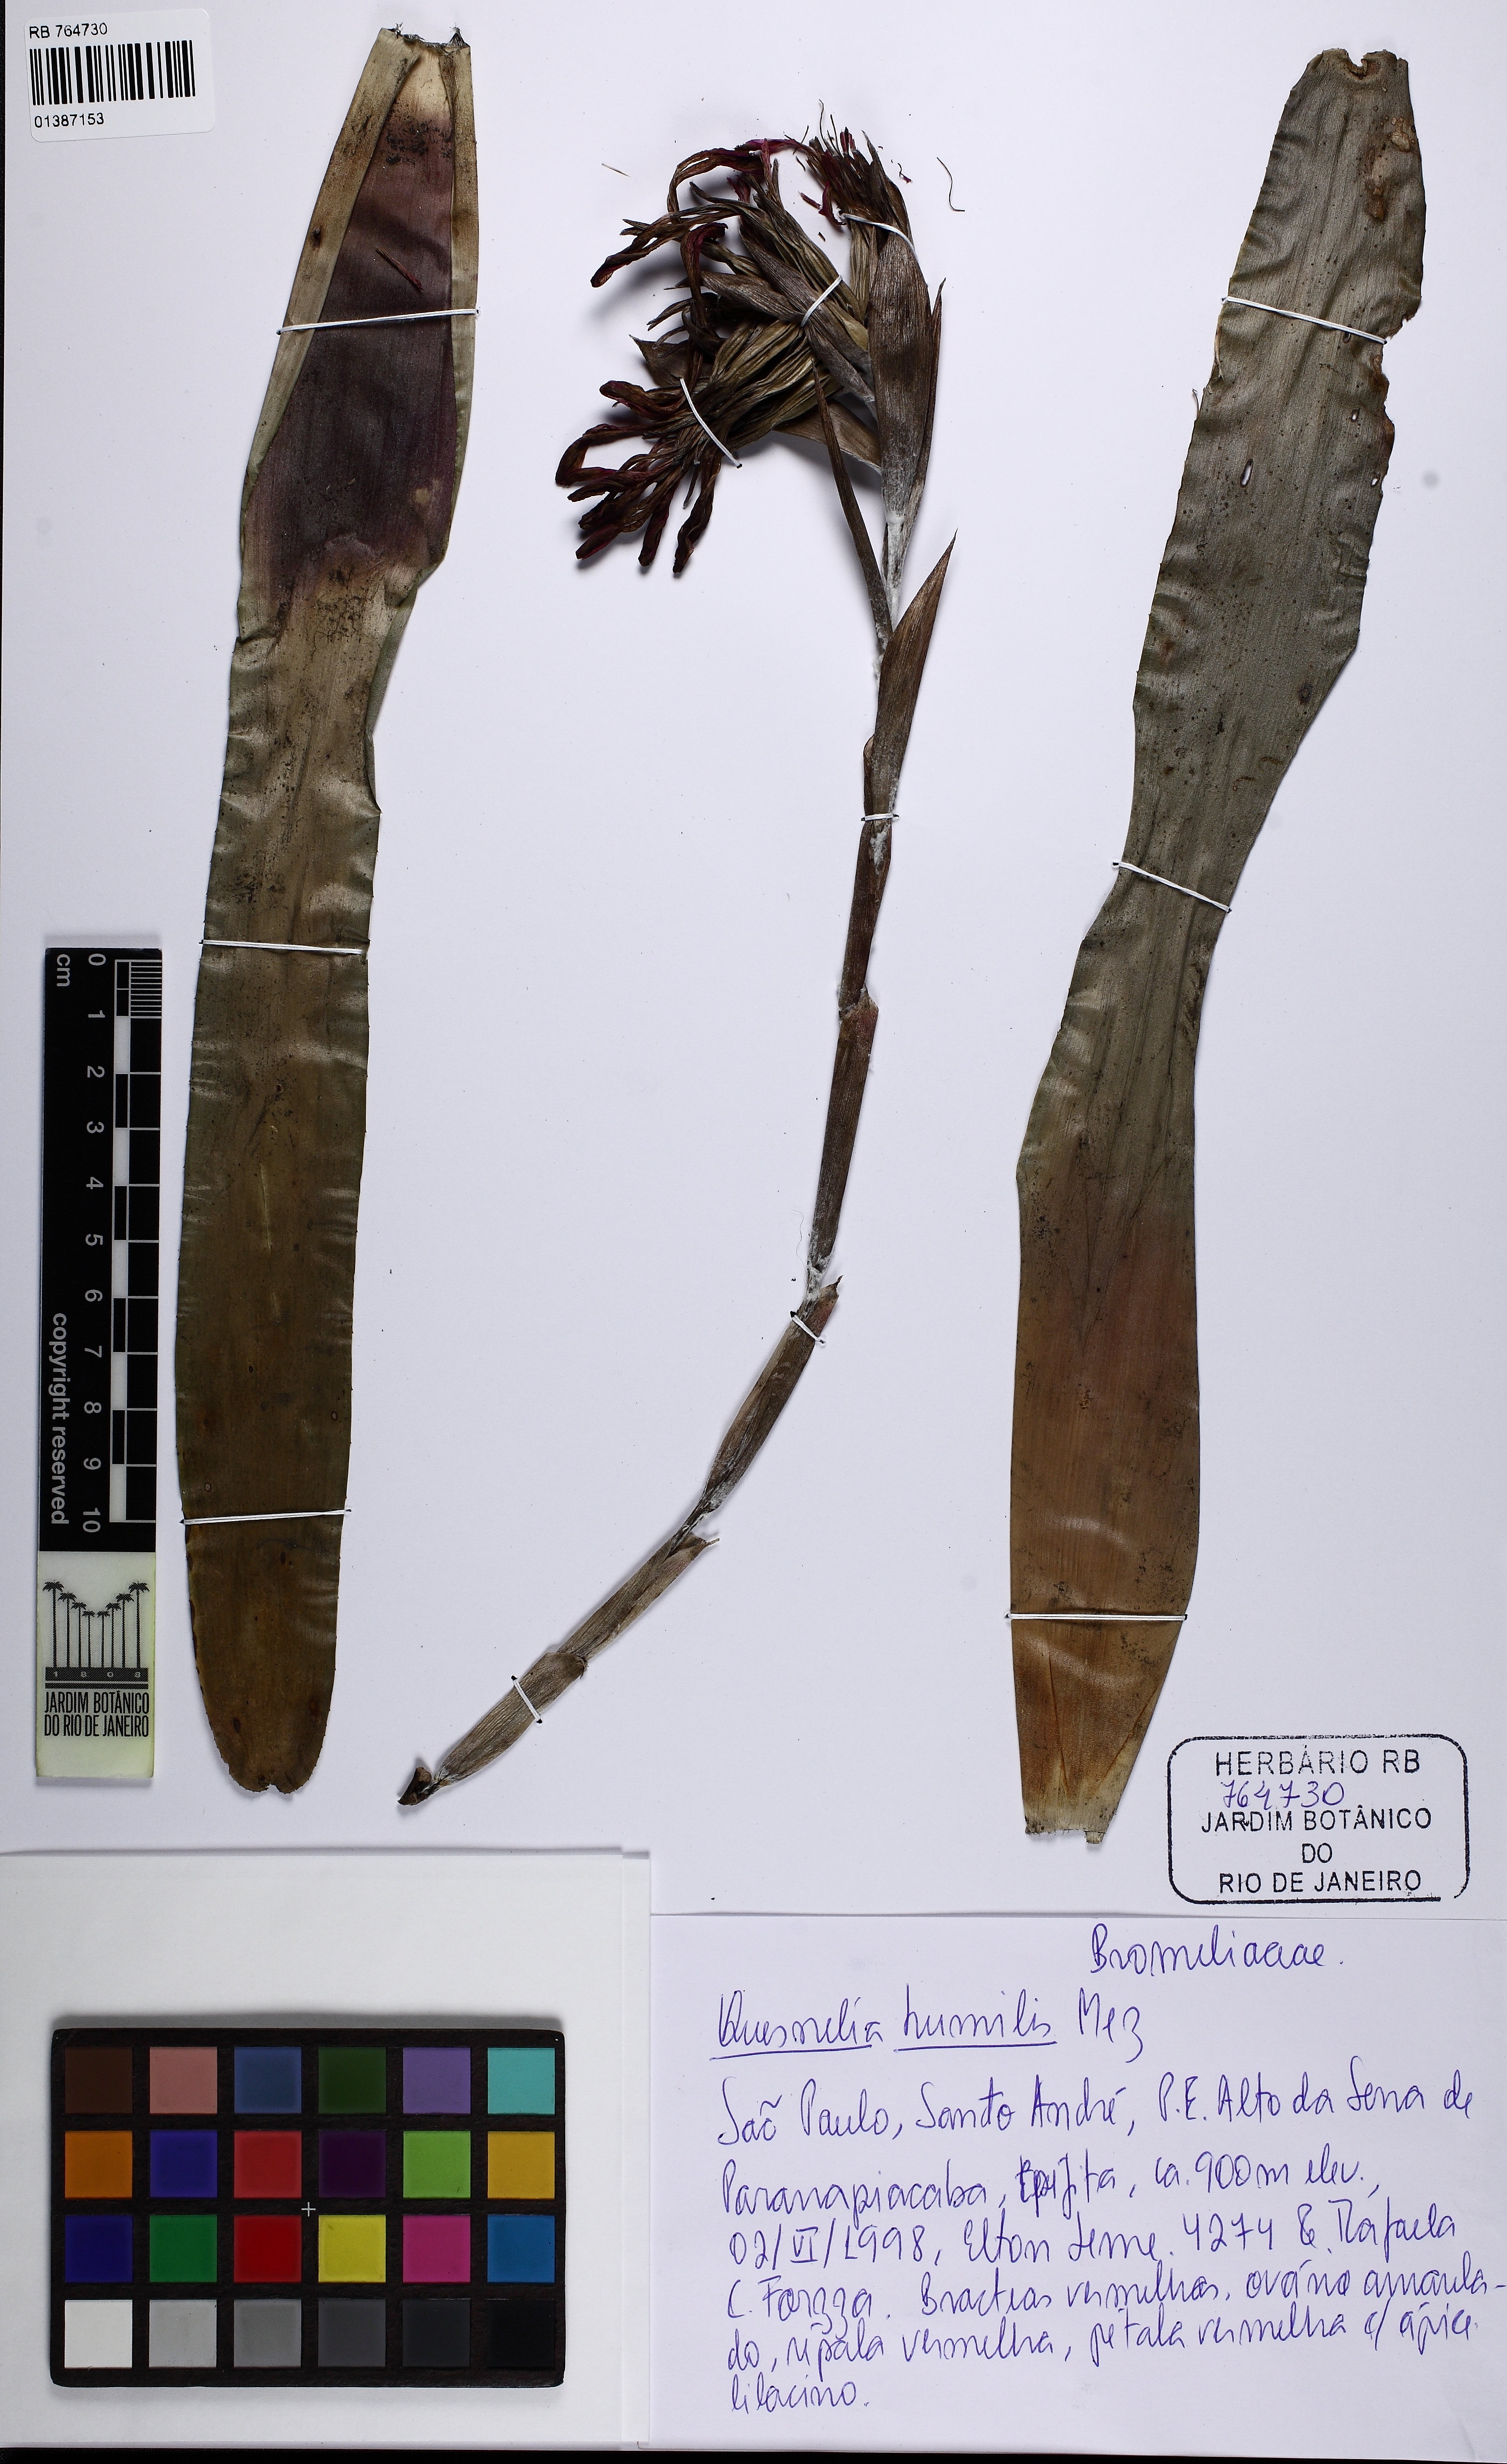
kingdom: Plantae
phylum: Tracheophyta
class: Liliopsida
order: Poales
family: Bromeliaceae
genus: Quesnelia
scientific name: Quesnelia humilis
